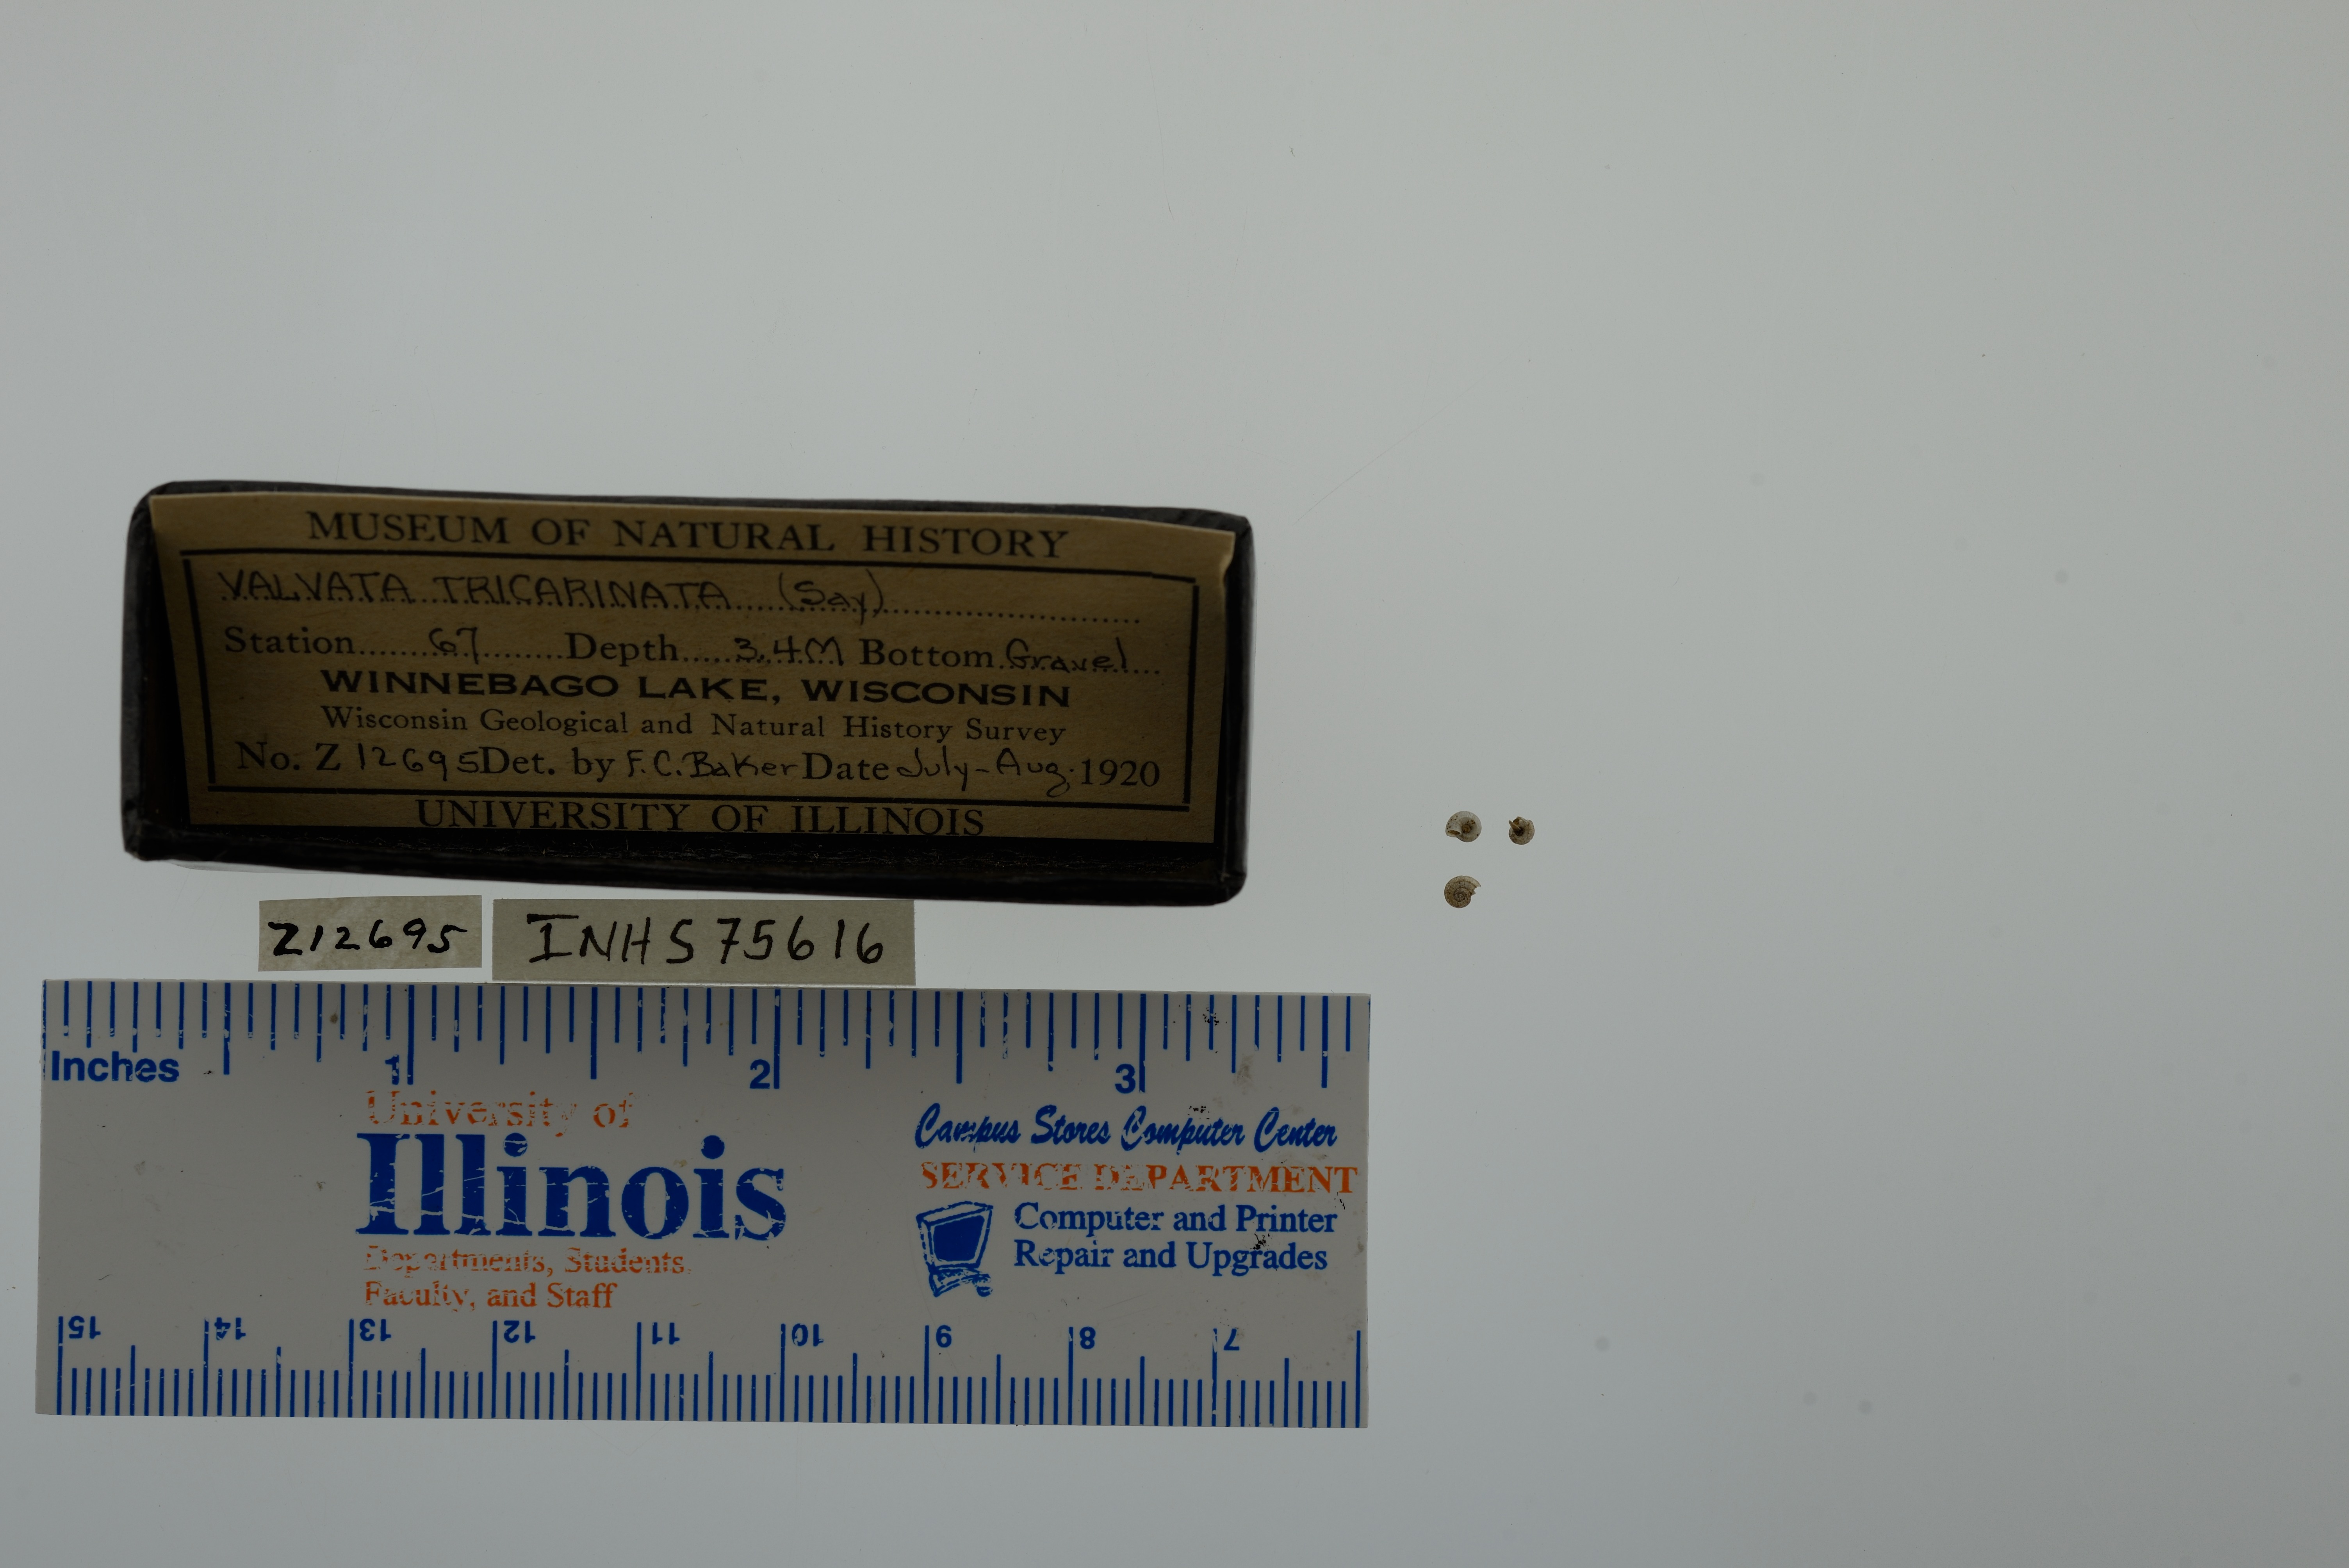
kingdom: Animalia
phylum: Mollusca
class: Gastropoda
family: Valvatidae
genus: Valvata
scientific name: Valvata tricarinata
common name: Three-ridge valvata
